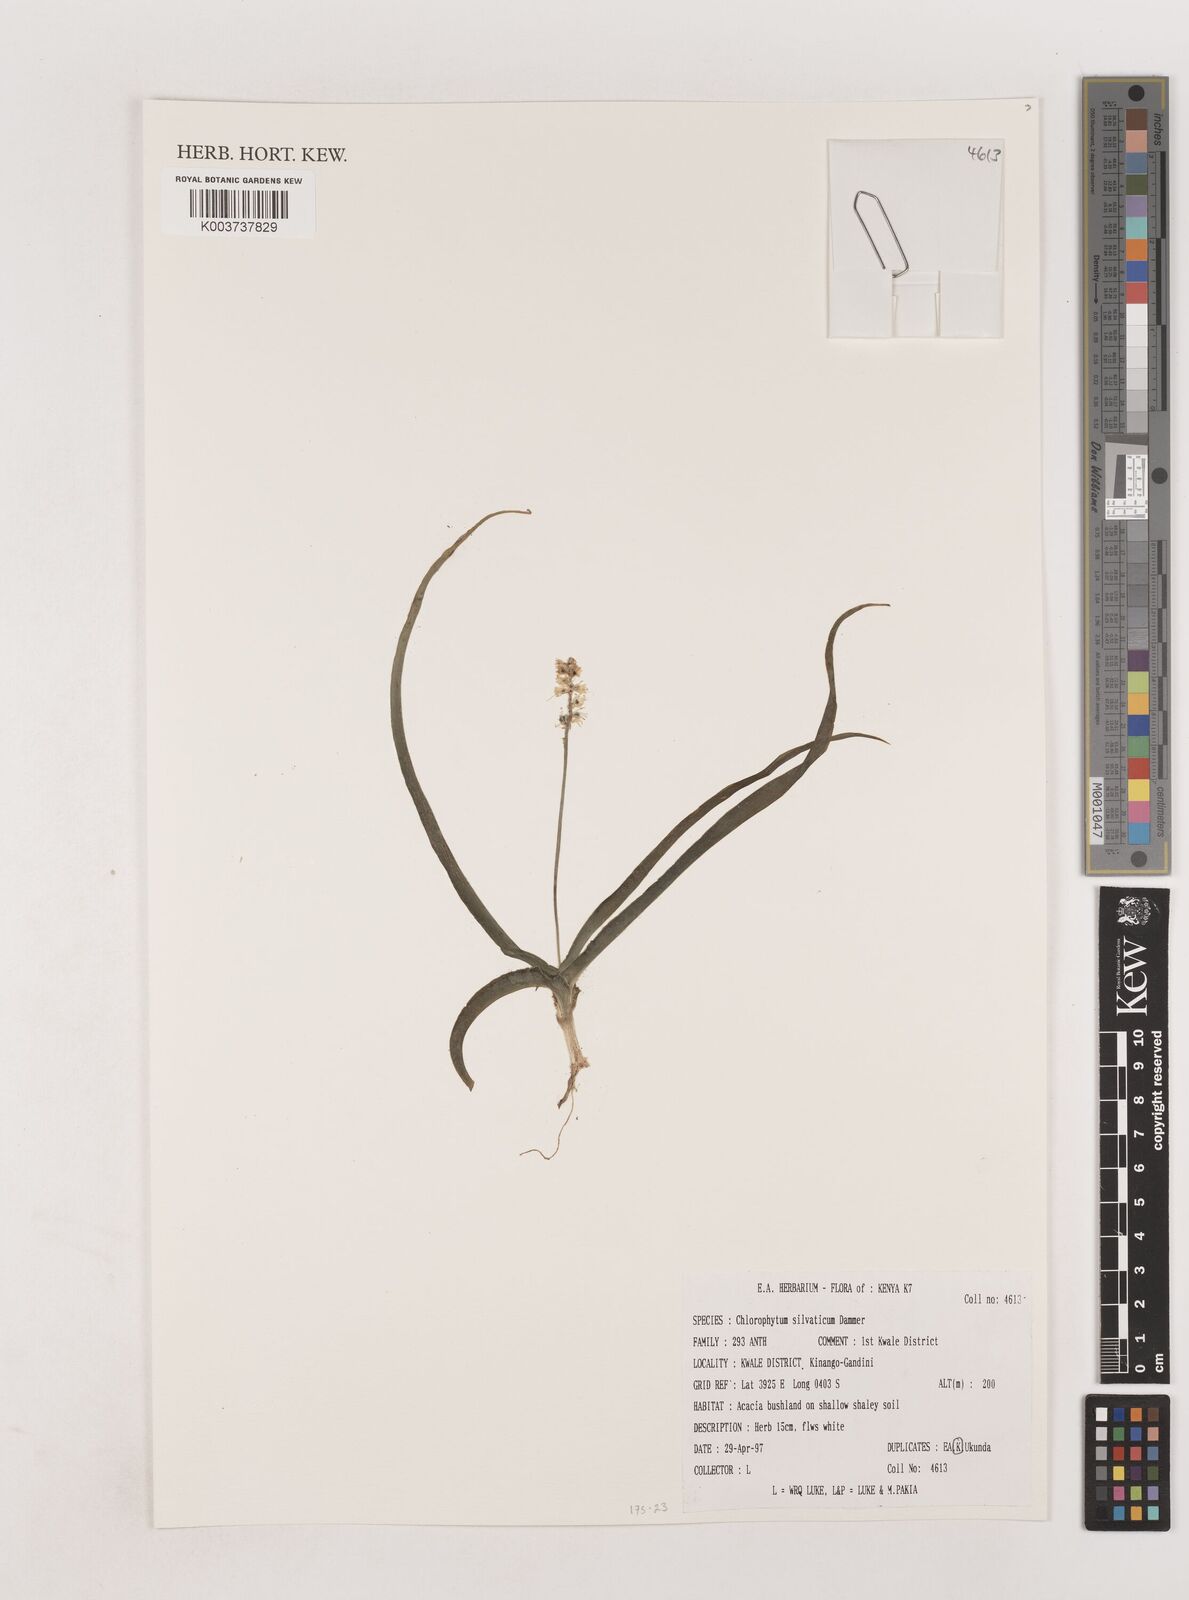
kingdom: Plantae
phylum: Tracheophyta
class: Liliopsida
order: Asparagales
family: Asparagaceae
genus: Chlorophytum
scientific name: Chlorophytum africanum
